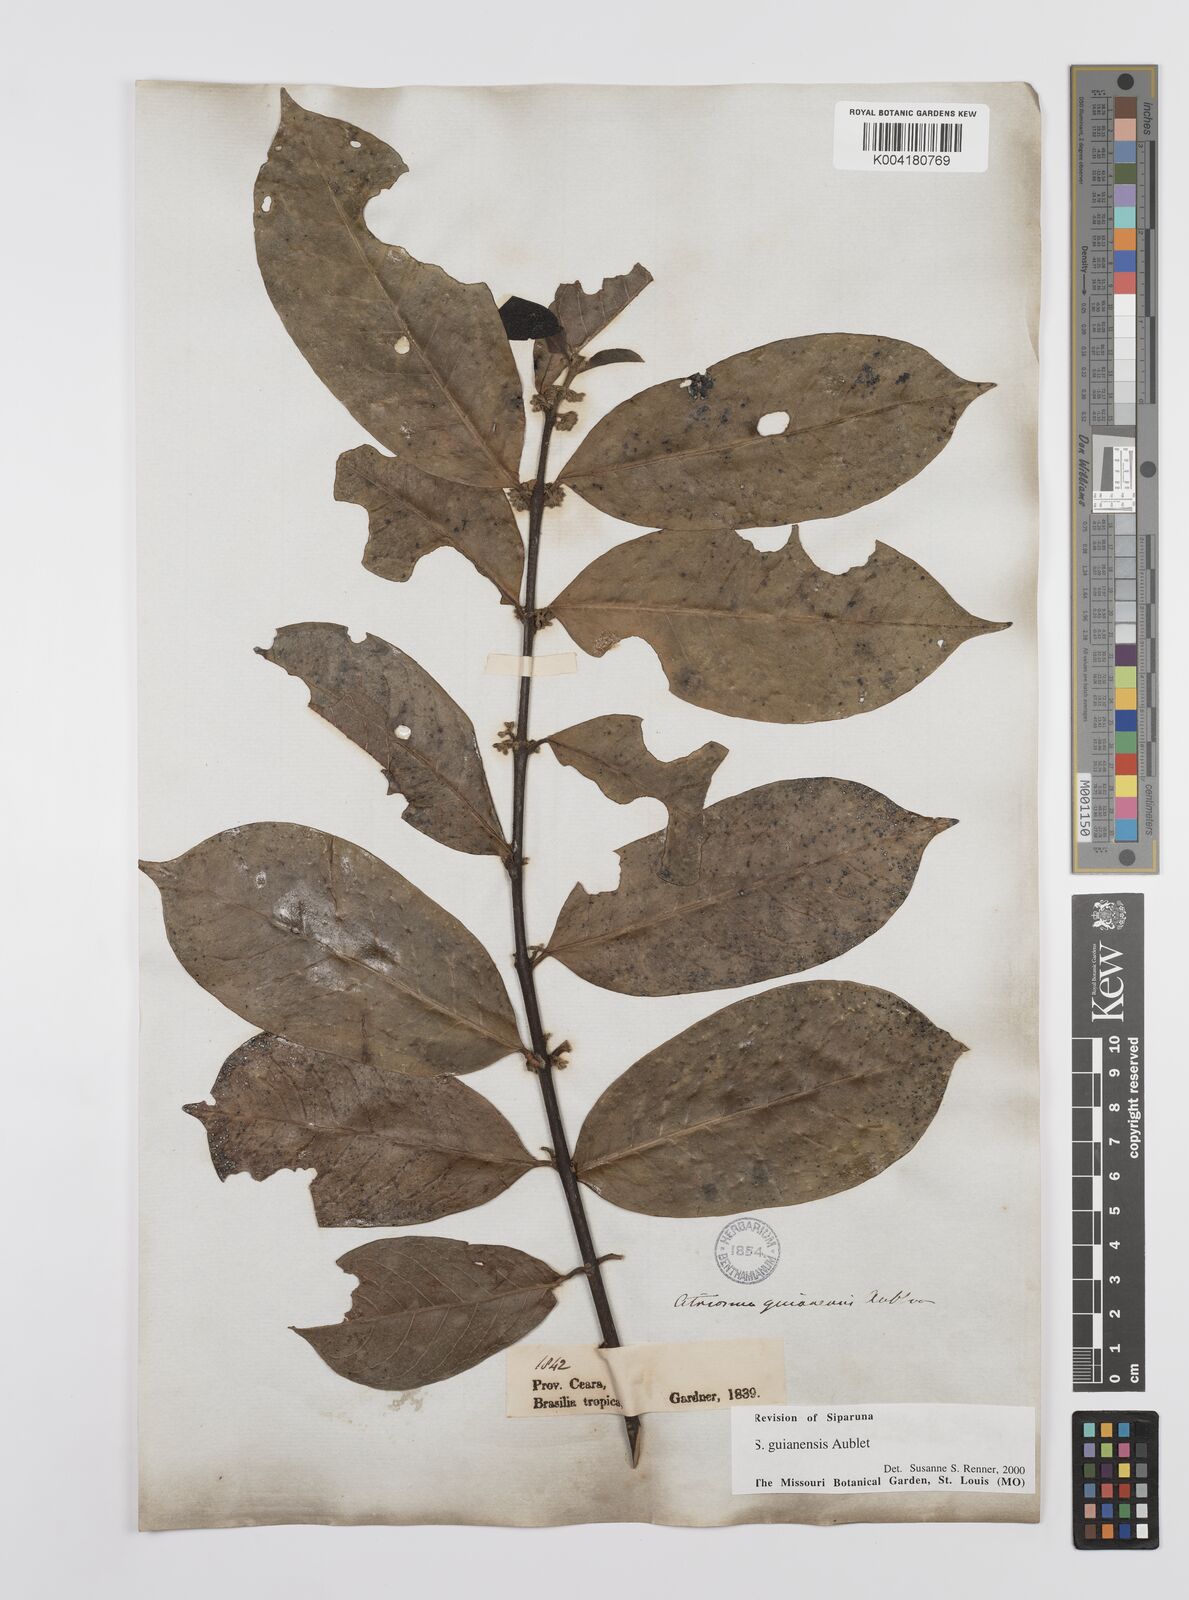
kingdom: Plantae
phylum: Tracheophyta
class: Magnoliopsida
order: Laurales
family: Siparunaceae
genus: Siparuna
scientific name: Siparuna guianensis
